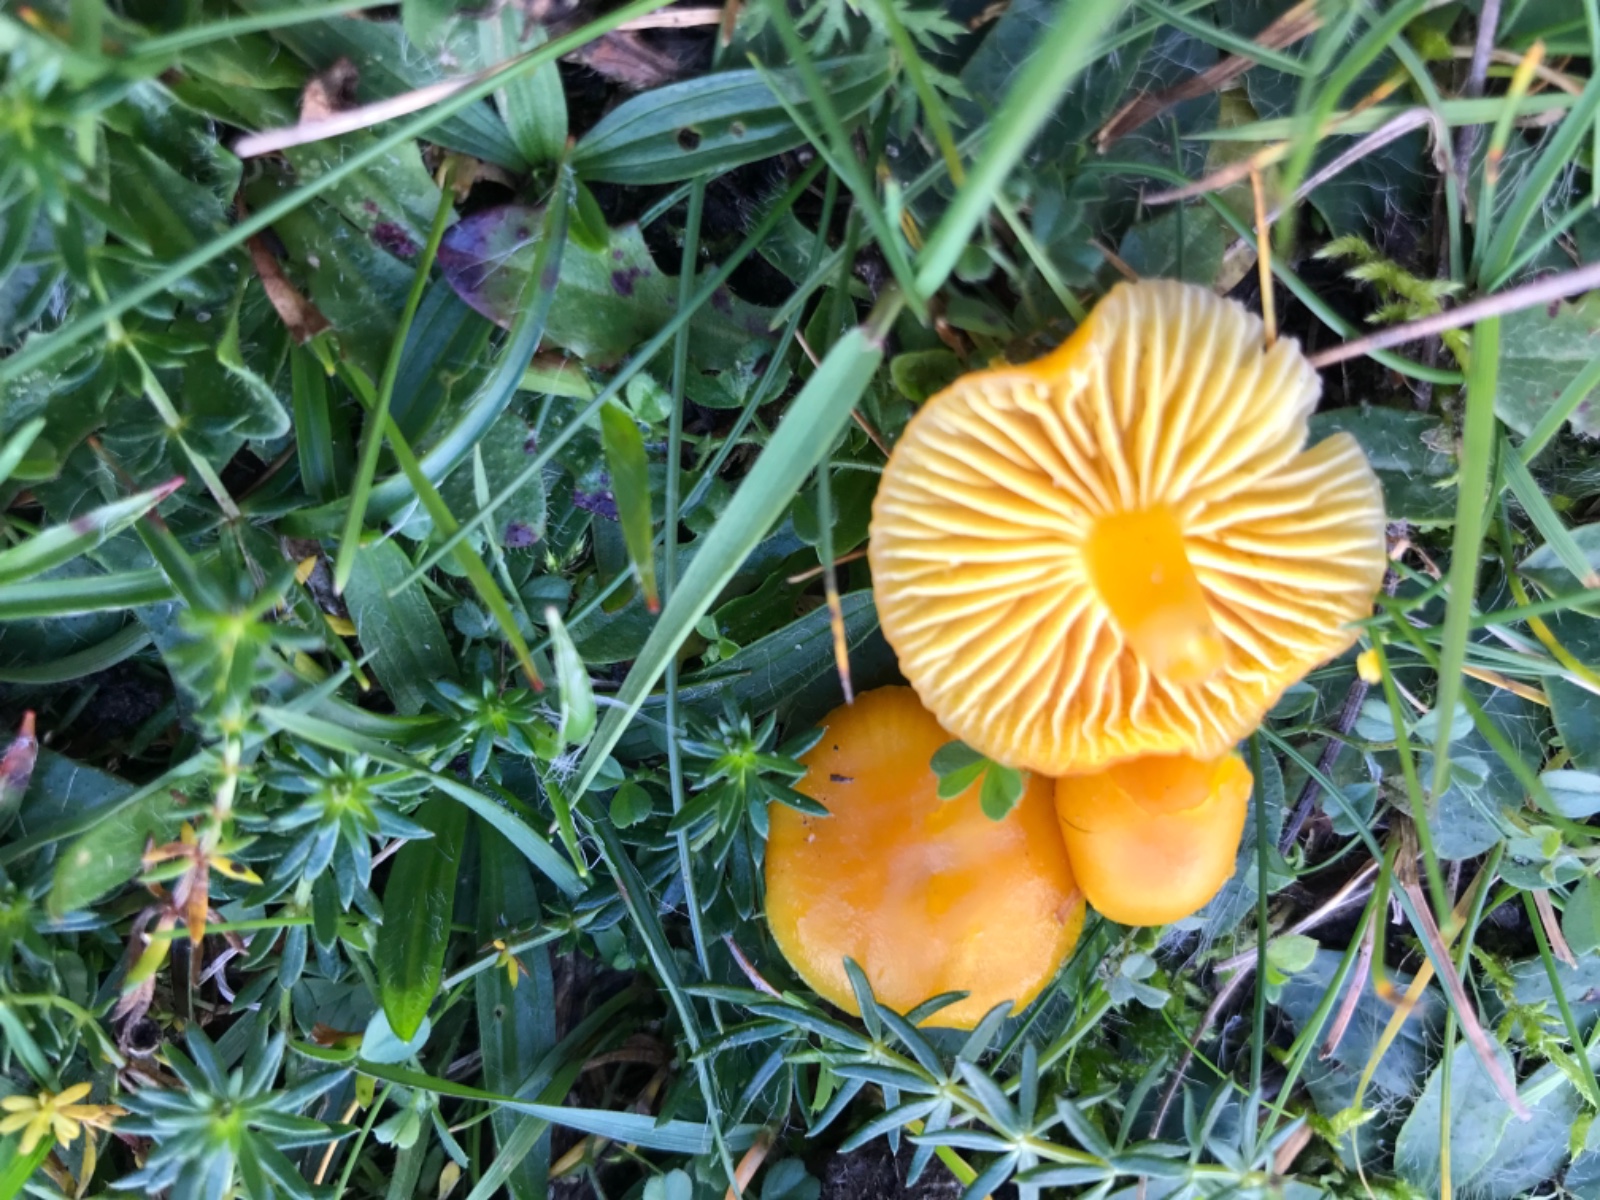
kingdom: Fungi
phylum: Basidiomycota
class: Agaricomycetes
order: Agaricales
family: Hygrophoraceae
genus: Hygrocybe
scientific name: Hygrocybe ceracea
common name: voksgul vokshat
